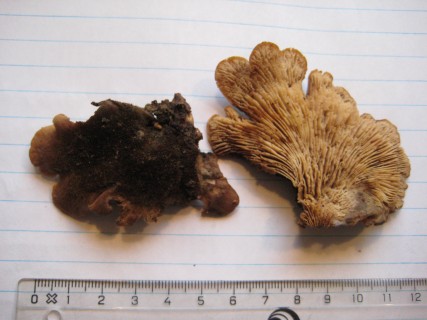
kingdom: Fungi
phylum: Basidiomycota
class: Agaricomycetes
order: Russulales
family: Auriscalpiaceae
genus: Lentinellus
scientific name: Lentinellus ursinus
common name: børstehåret savbladhat
